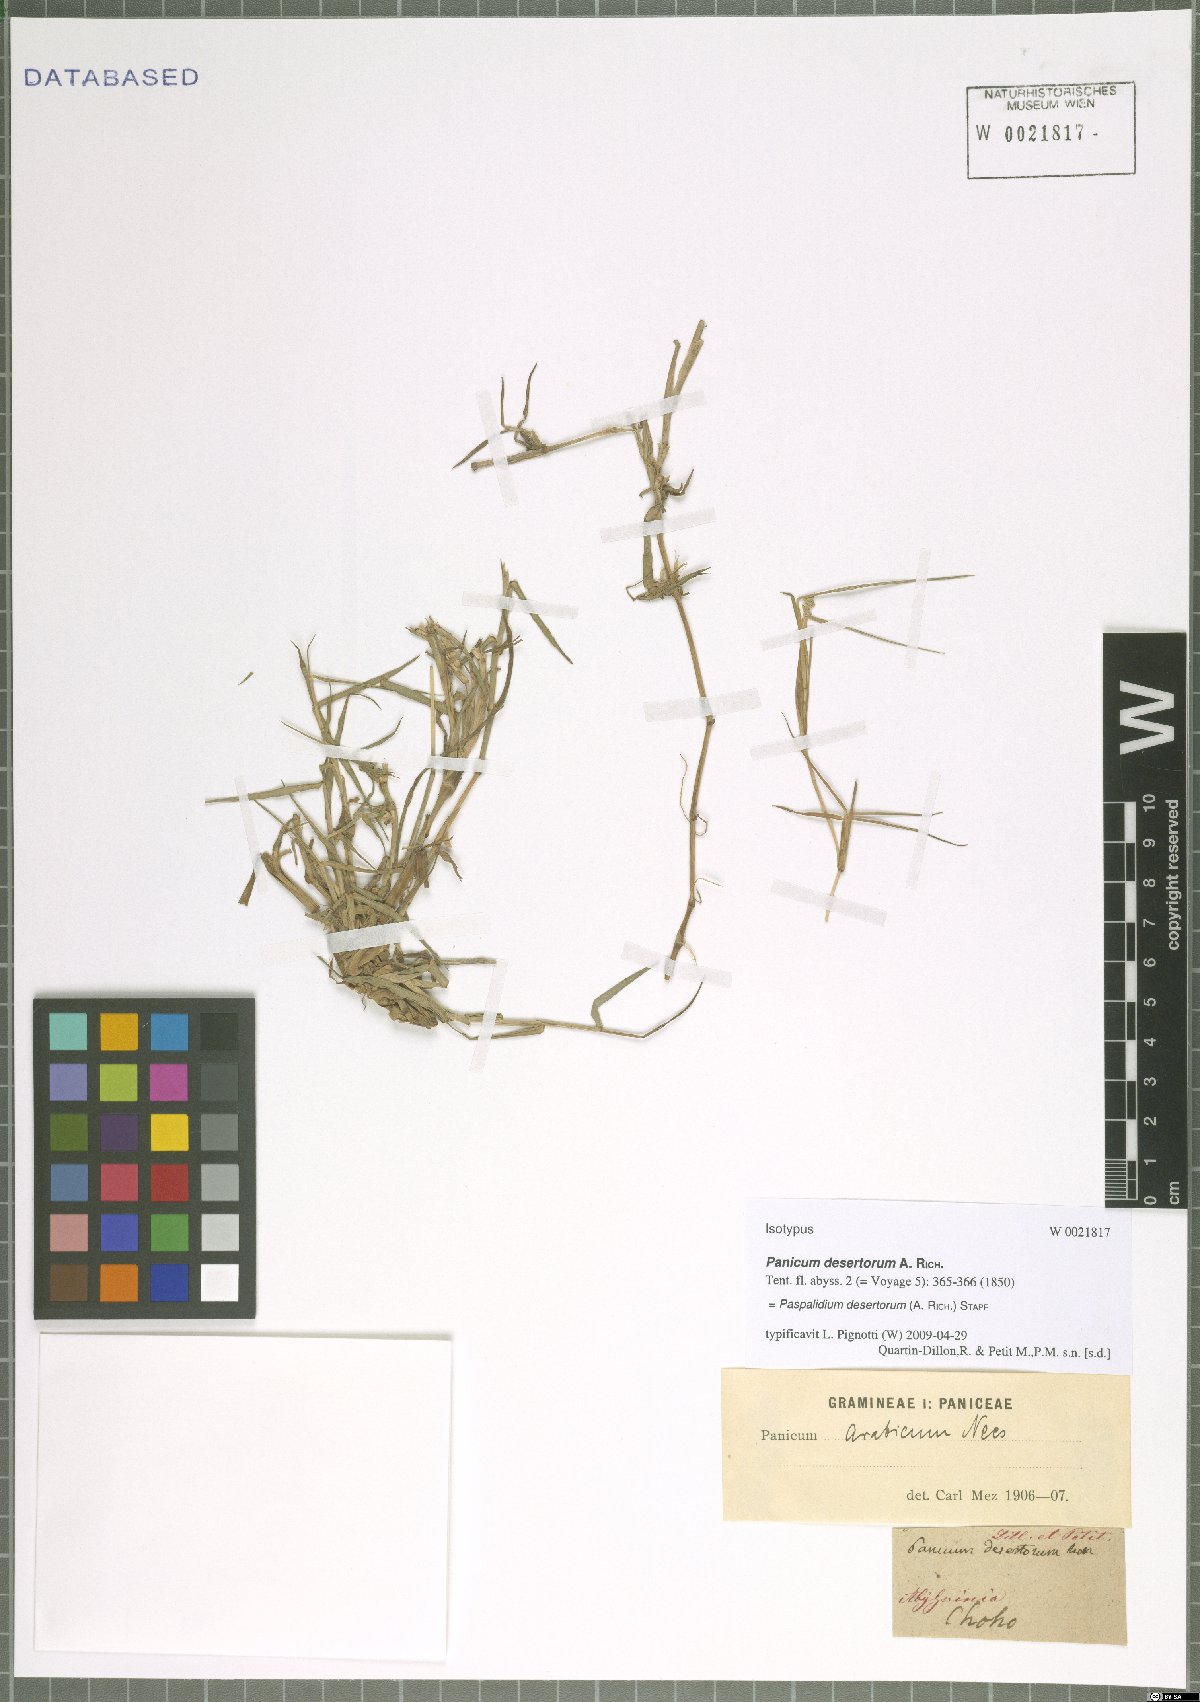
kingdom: Plantae
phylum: Tracheophyta
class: Liliopsida
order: Poales
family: Poaceae
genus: Setaria
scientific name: Setaria desertorum
